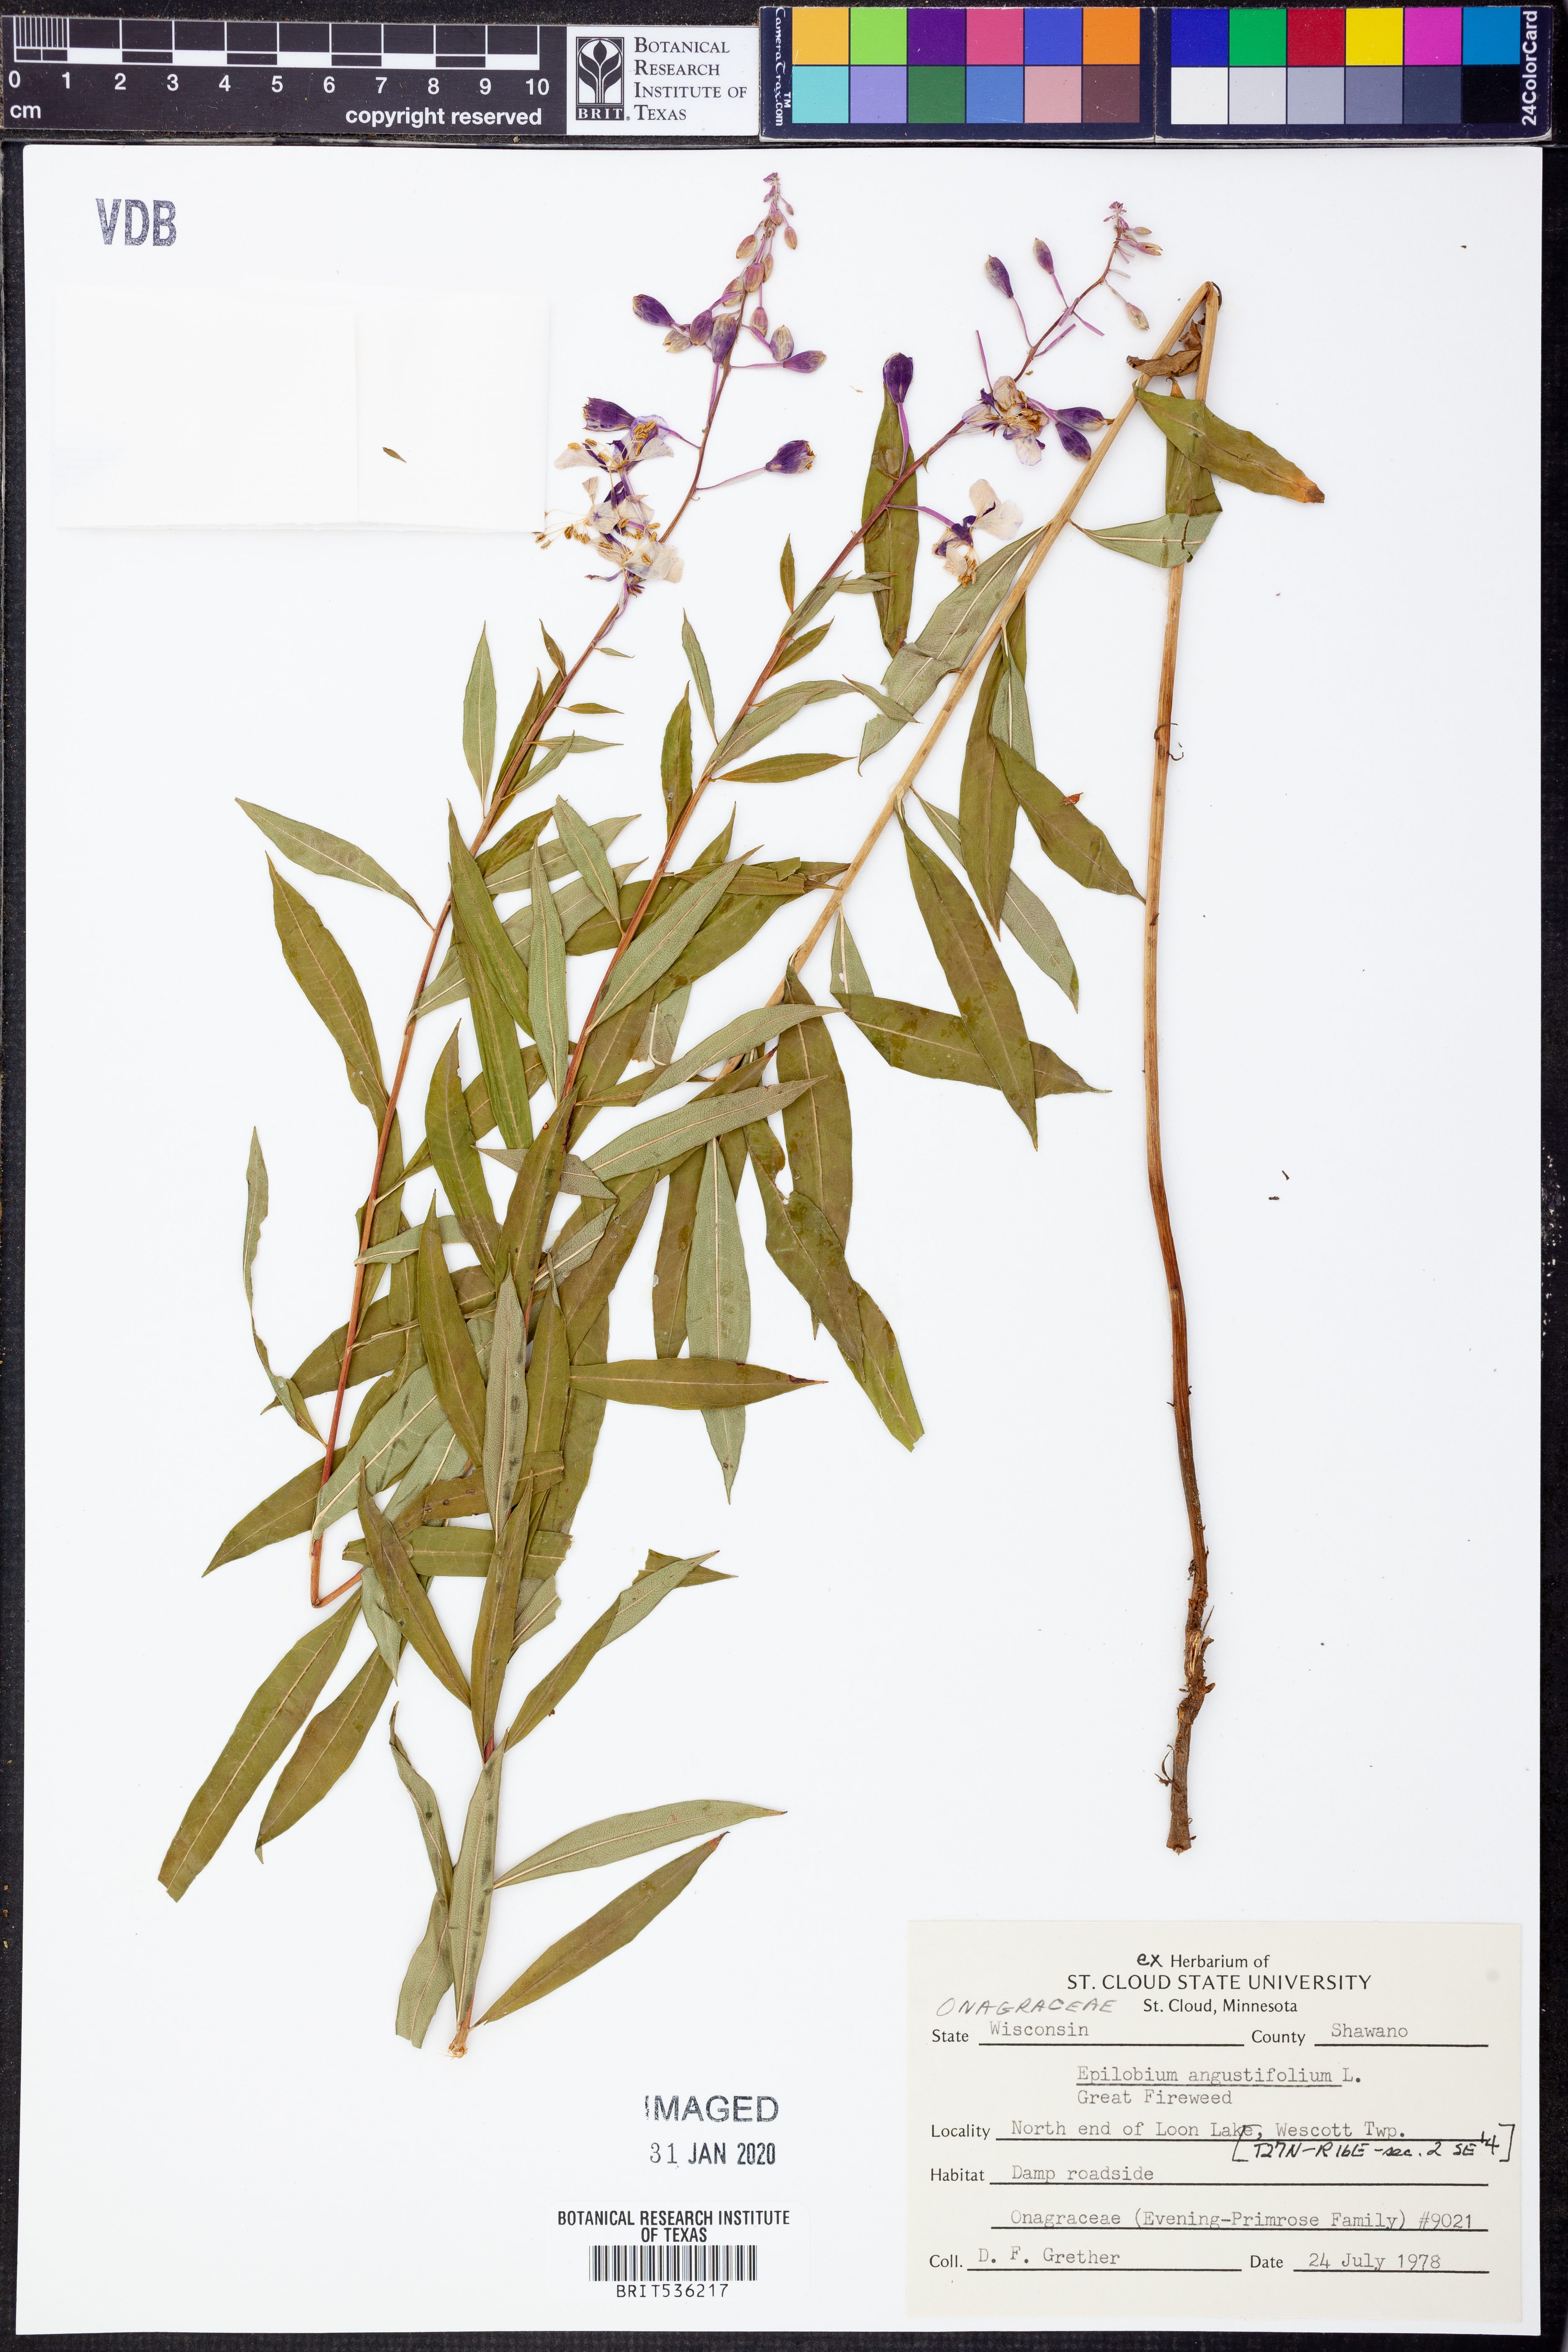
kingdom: Plantae
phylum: Tracheophyta
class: Magnoliopsida
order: Myrtales
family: Onagraceae
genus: Chamaenerion
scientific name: Chamaenerion dodonaei
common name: Rosemary-leaved willowherb
